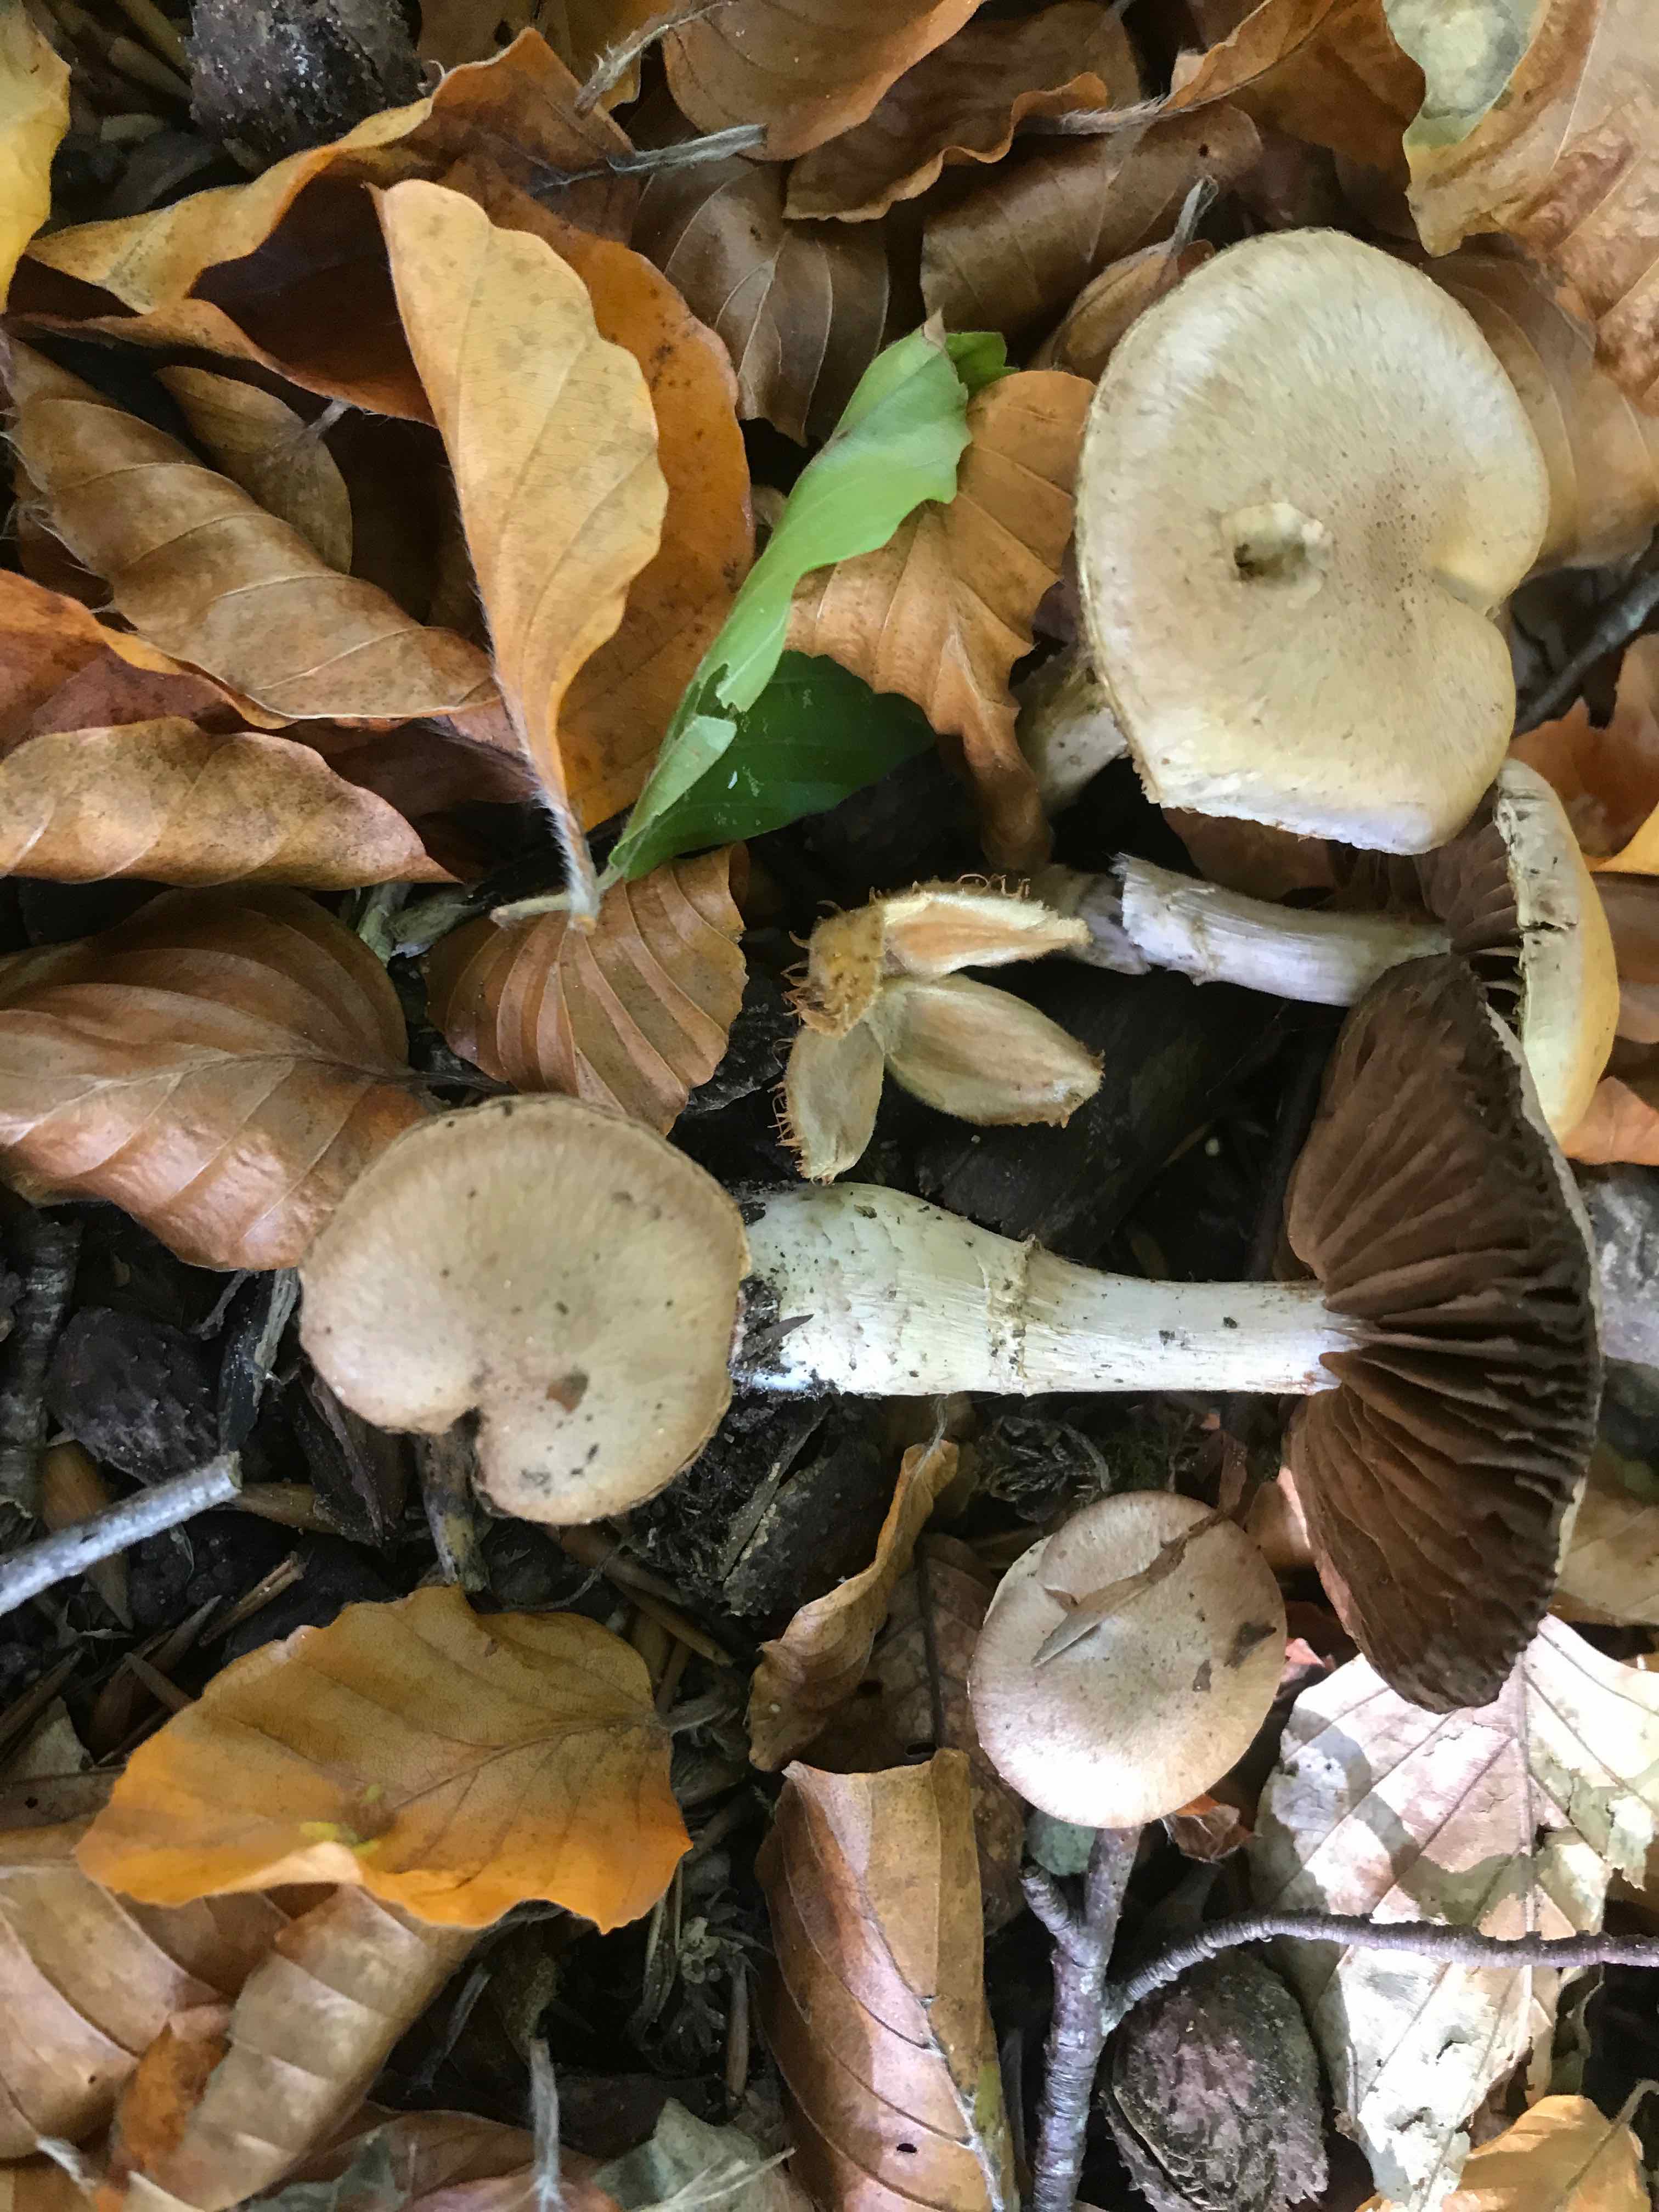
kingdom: Fungi
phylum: Basidiomycota
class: Agaricomycetes
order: Agaricales
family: Cortinariaceae
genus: Cortinarius
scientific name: Cortinarius torvus
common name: champignonagtig slørhat
